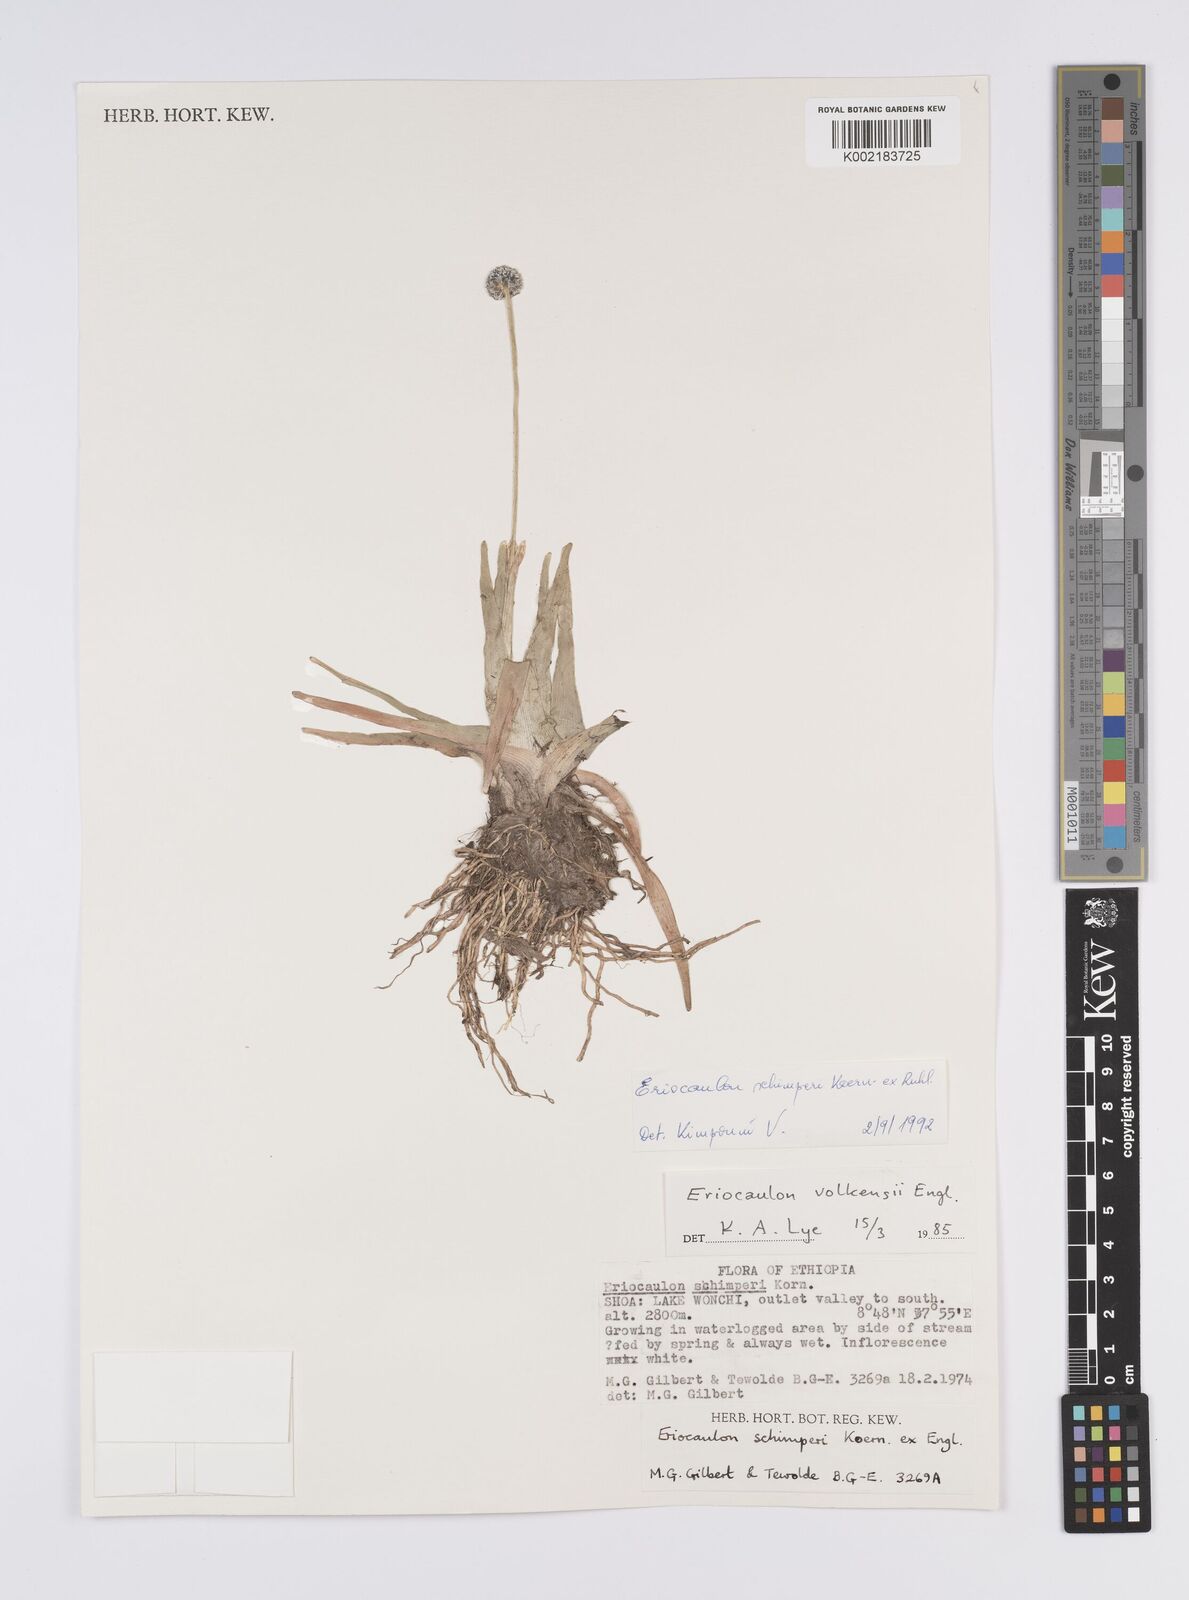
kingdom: Plantae
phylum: Tracheophyta
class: Liliopsida
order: Poales
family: Eriocaulaceae
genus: Eriocaulon
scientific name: Eriocaulon schimperi
